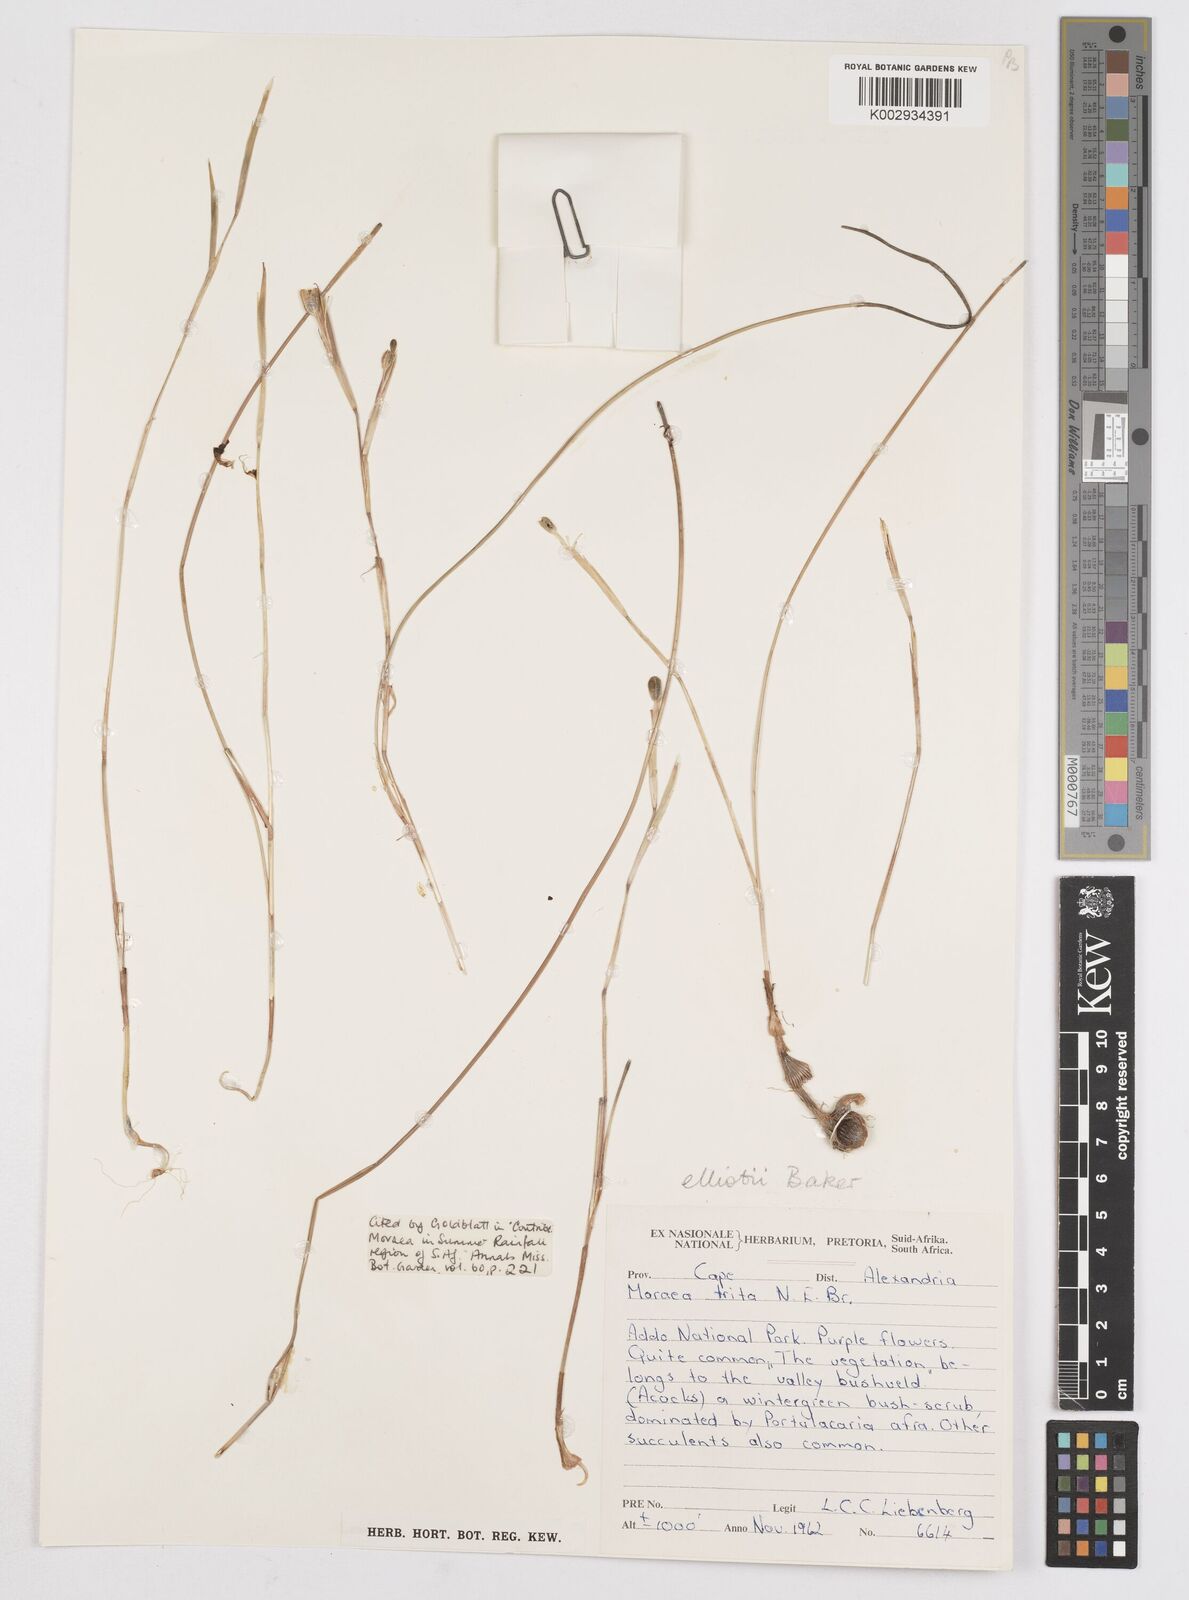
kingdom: Plantae
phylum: Tracheophyta
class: Liliopsida
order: Asparagales
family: Iridaceae
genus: Moraea
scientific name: Moraea elliotii
